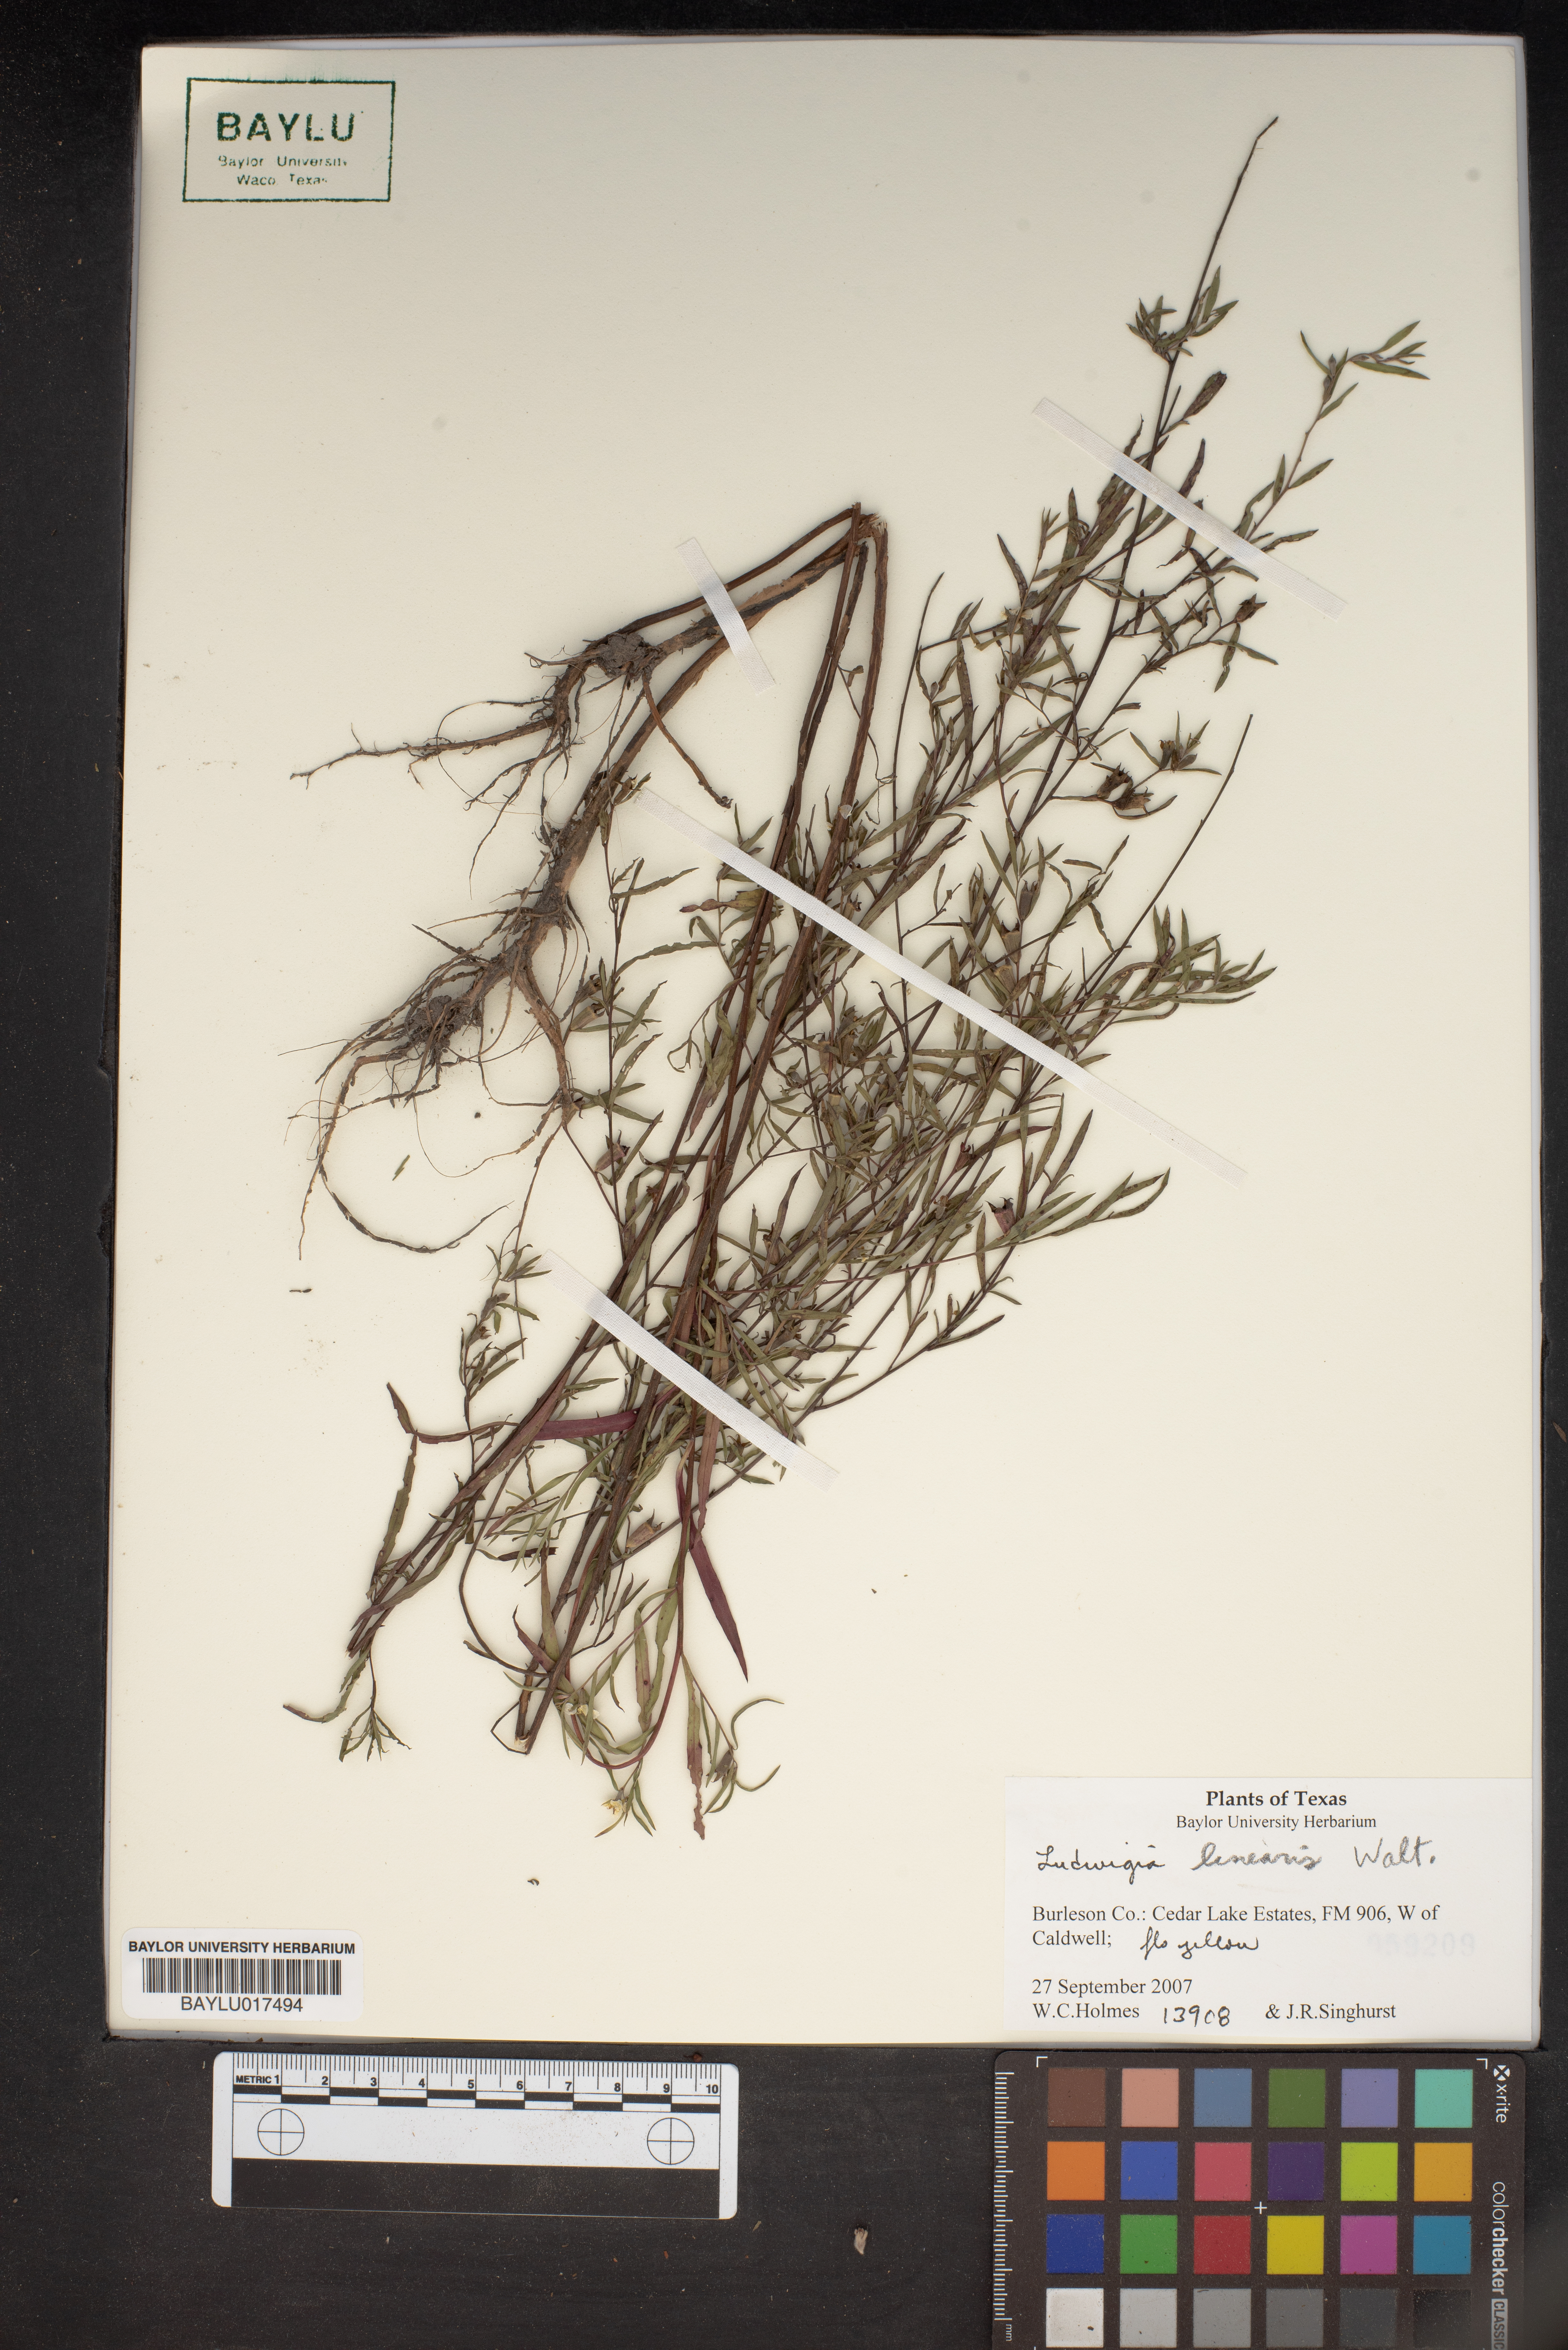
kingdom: Plantae
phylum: Tracheophyta
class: Magnoliopsida
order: Myrtales
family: Onagraceae
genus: Ludwigia
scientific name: Ludwigia linearis
